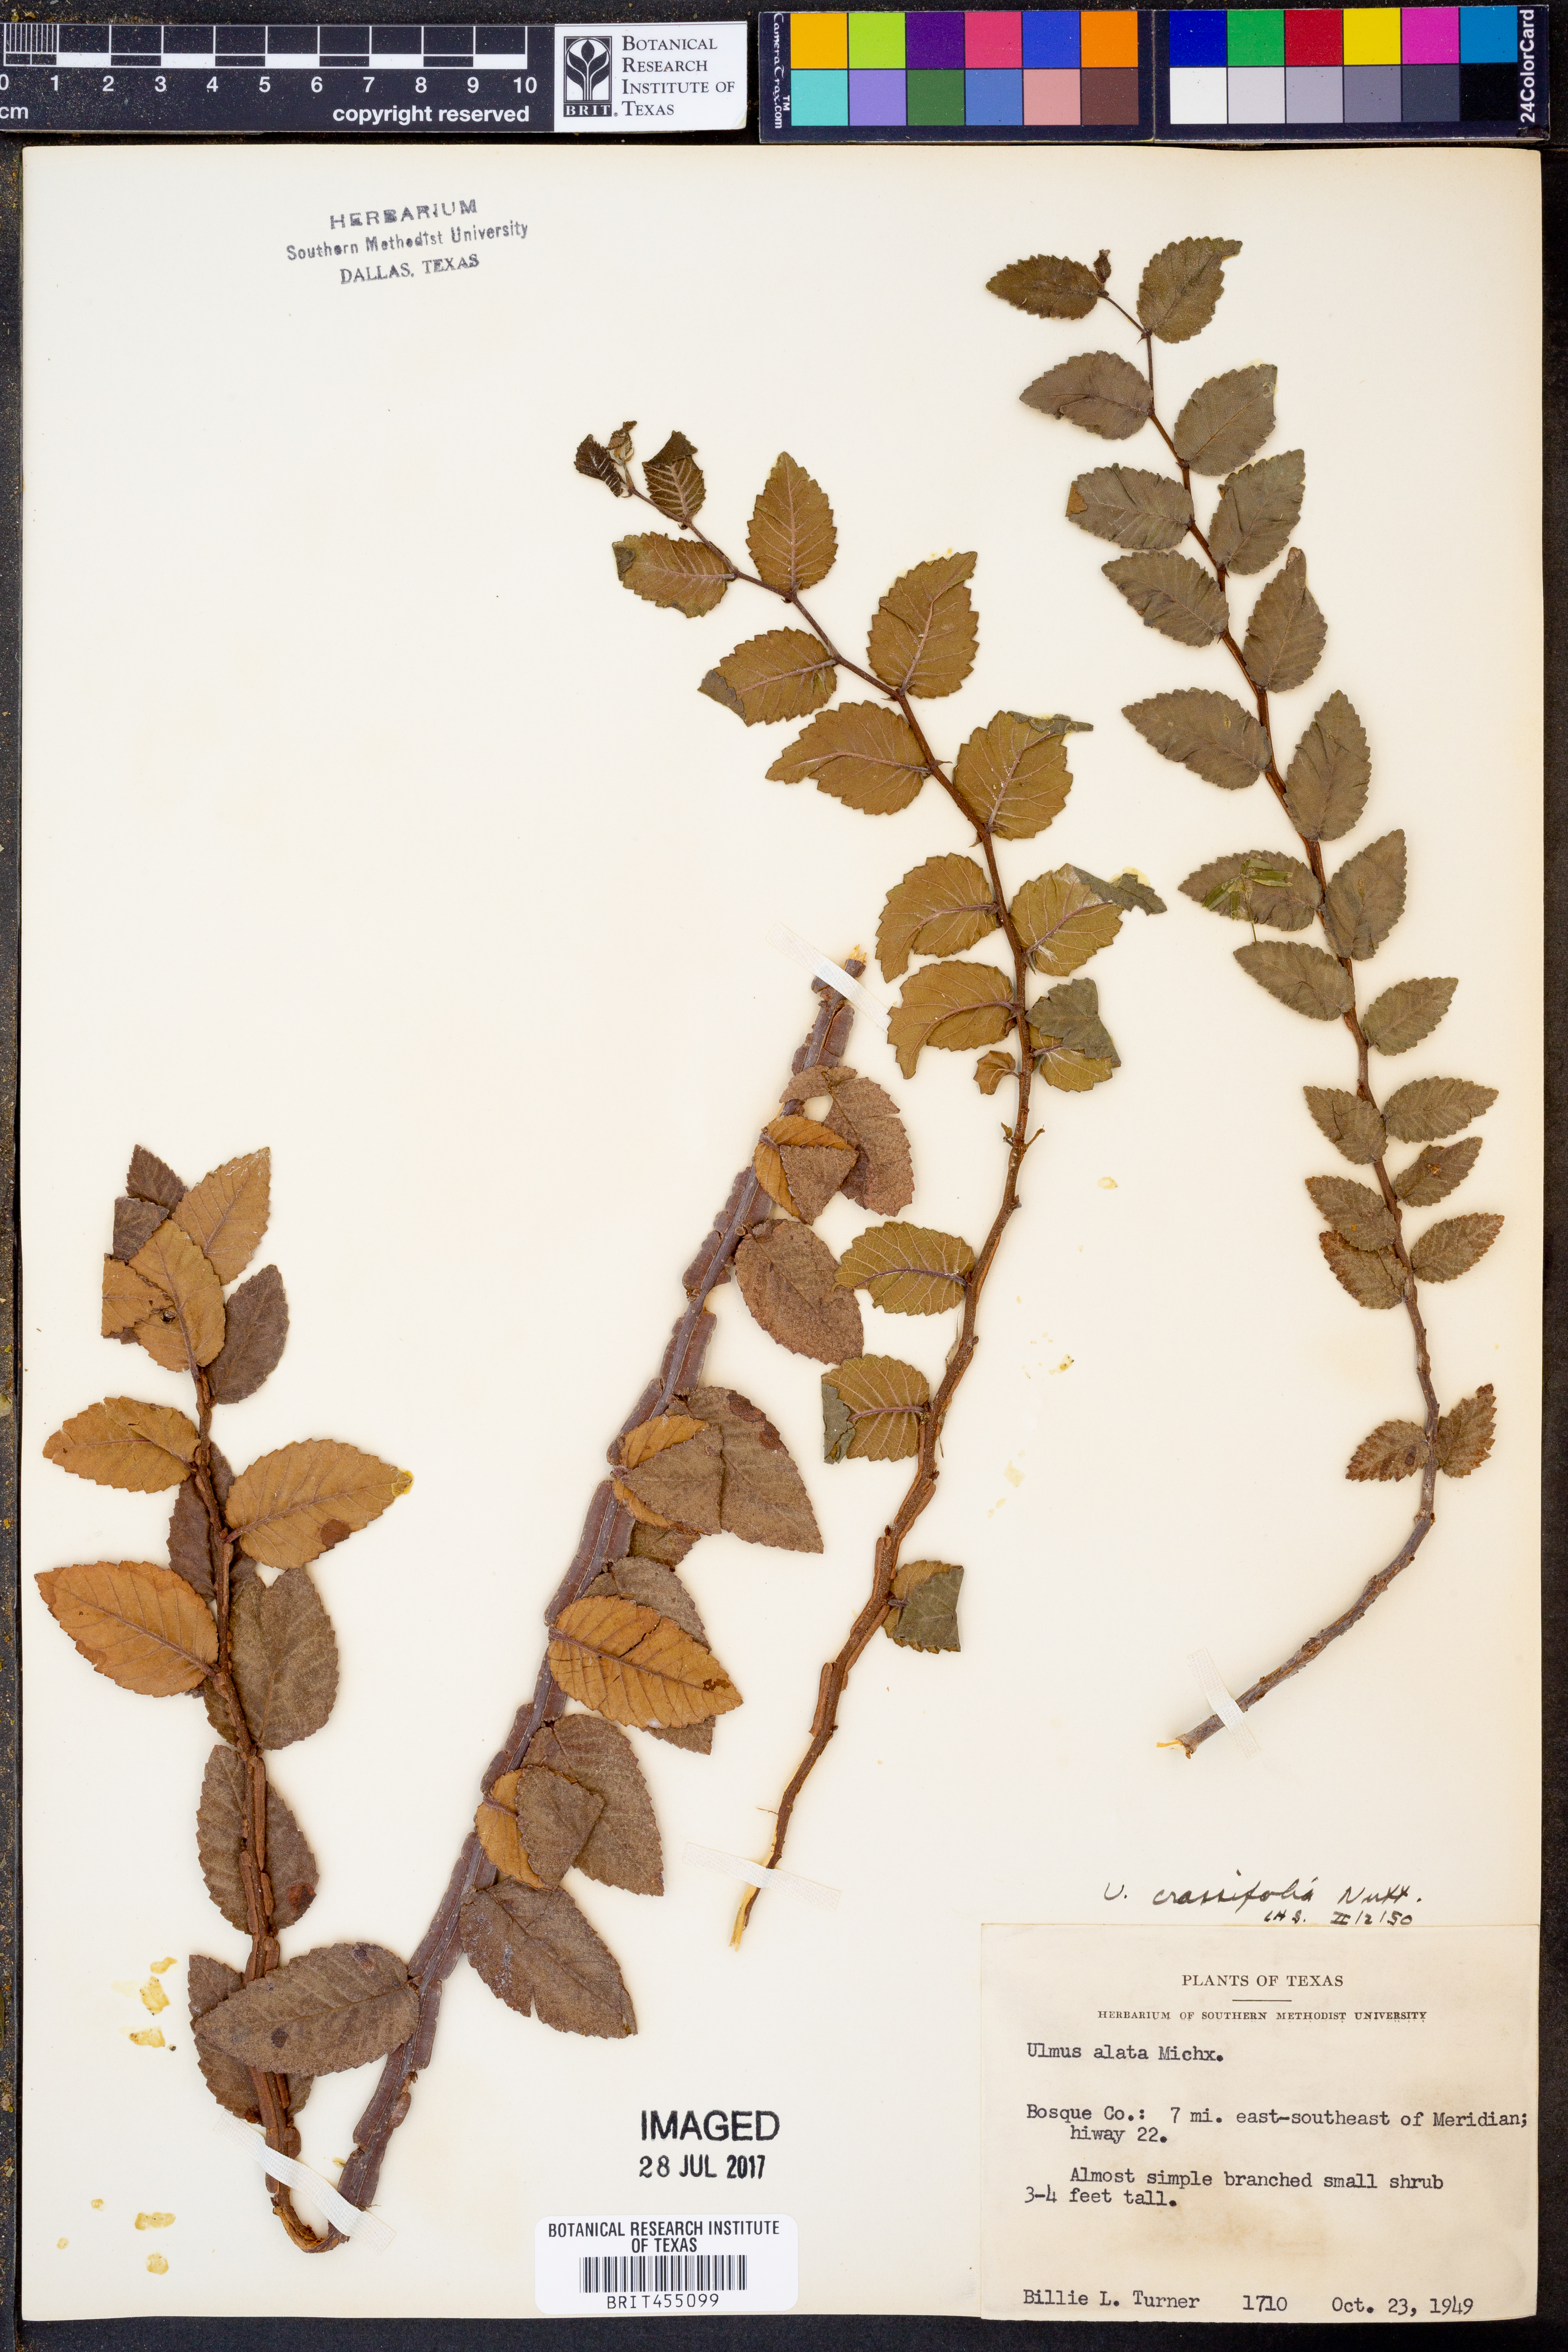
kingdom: Plantae
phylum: Tracheophyta
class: Magnoliopsida
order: Rosales
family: Ulmaceae
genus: Ulmus
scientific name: Ulmus crassifolia
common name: Basket elm
